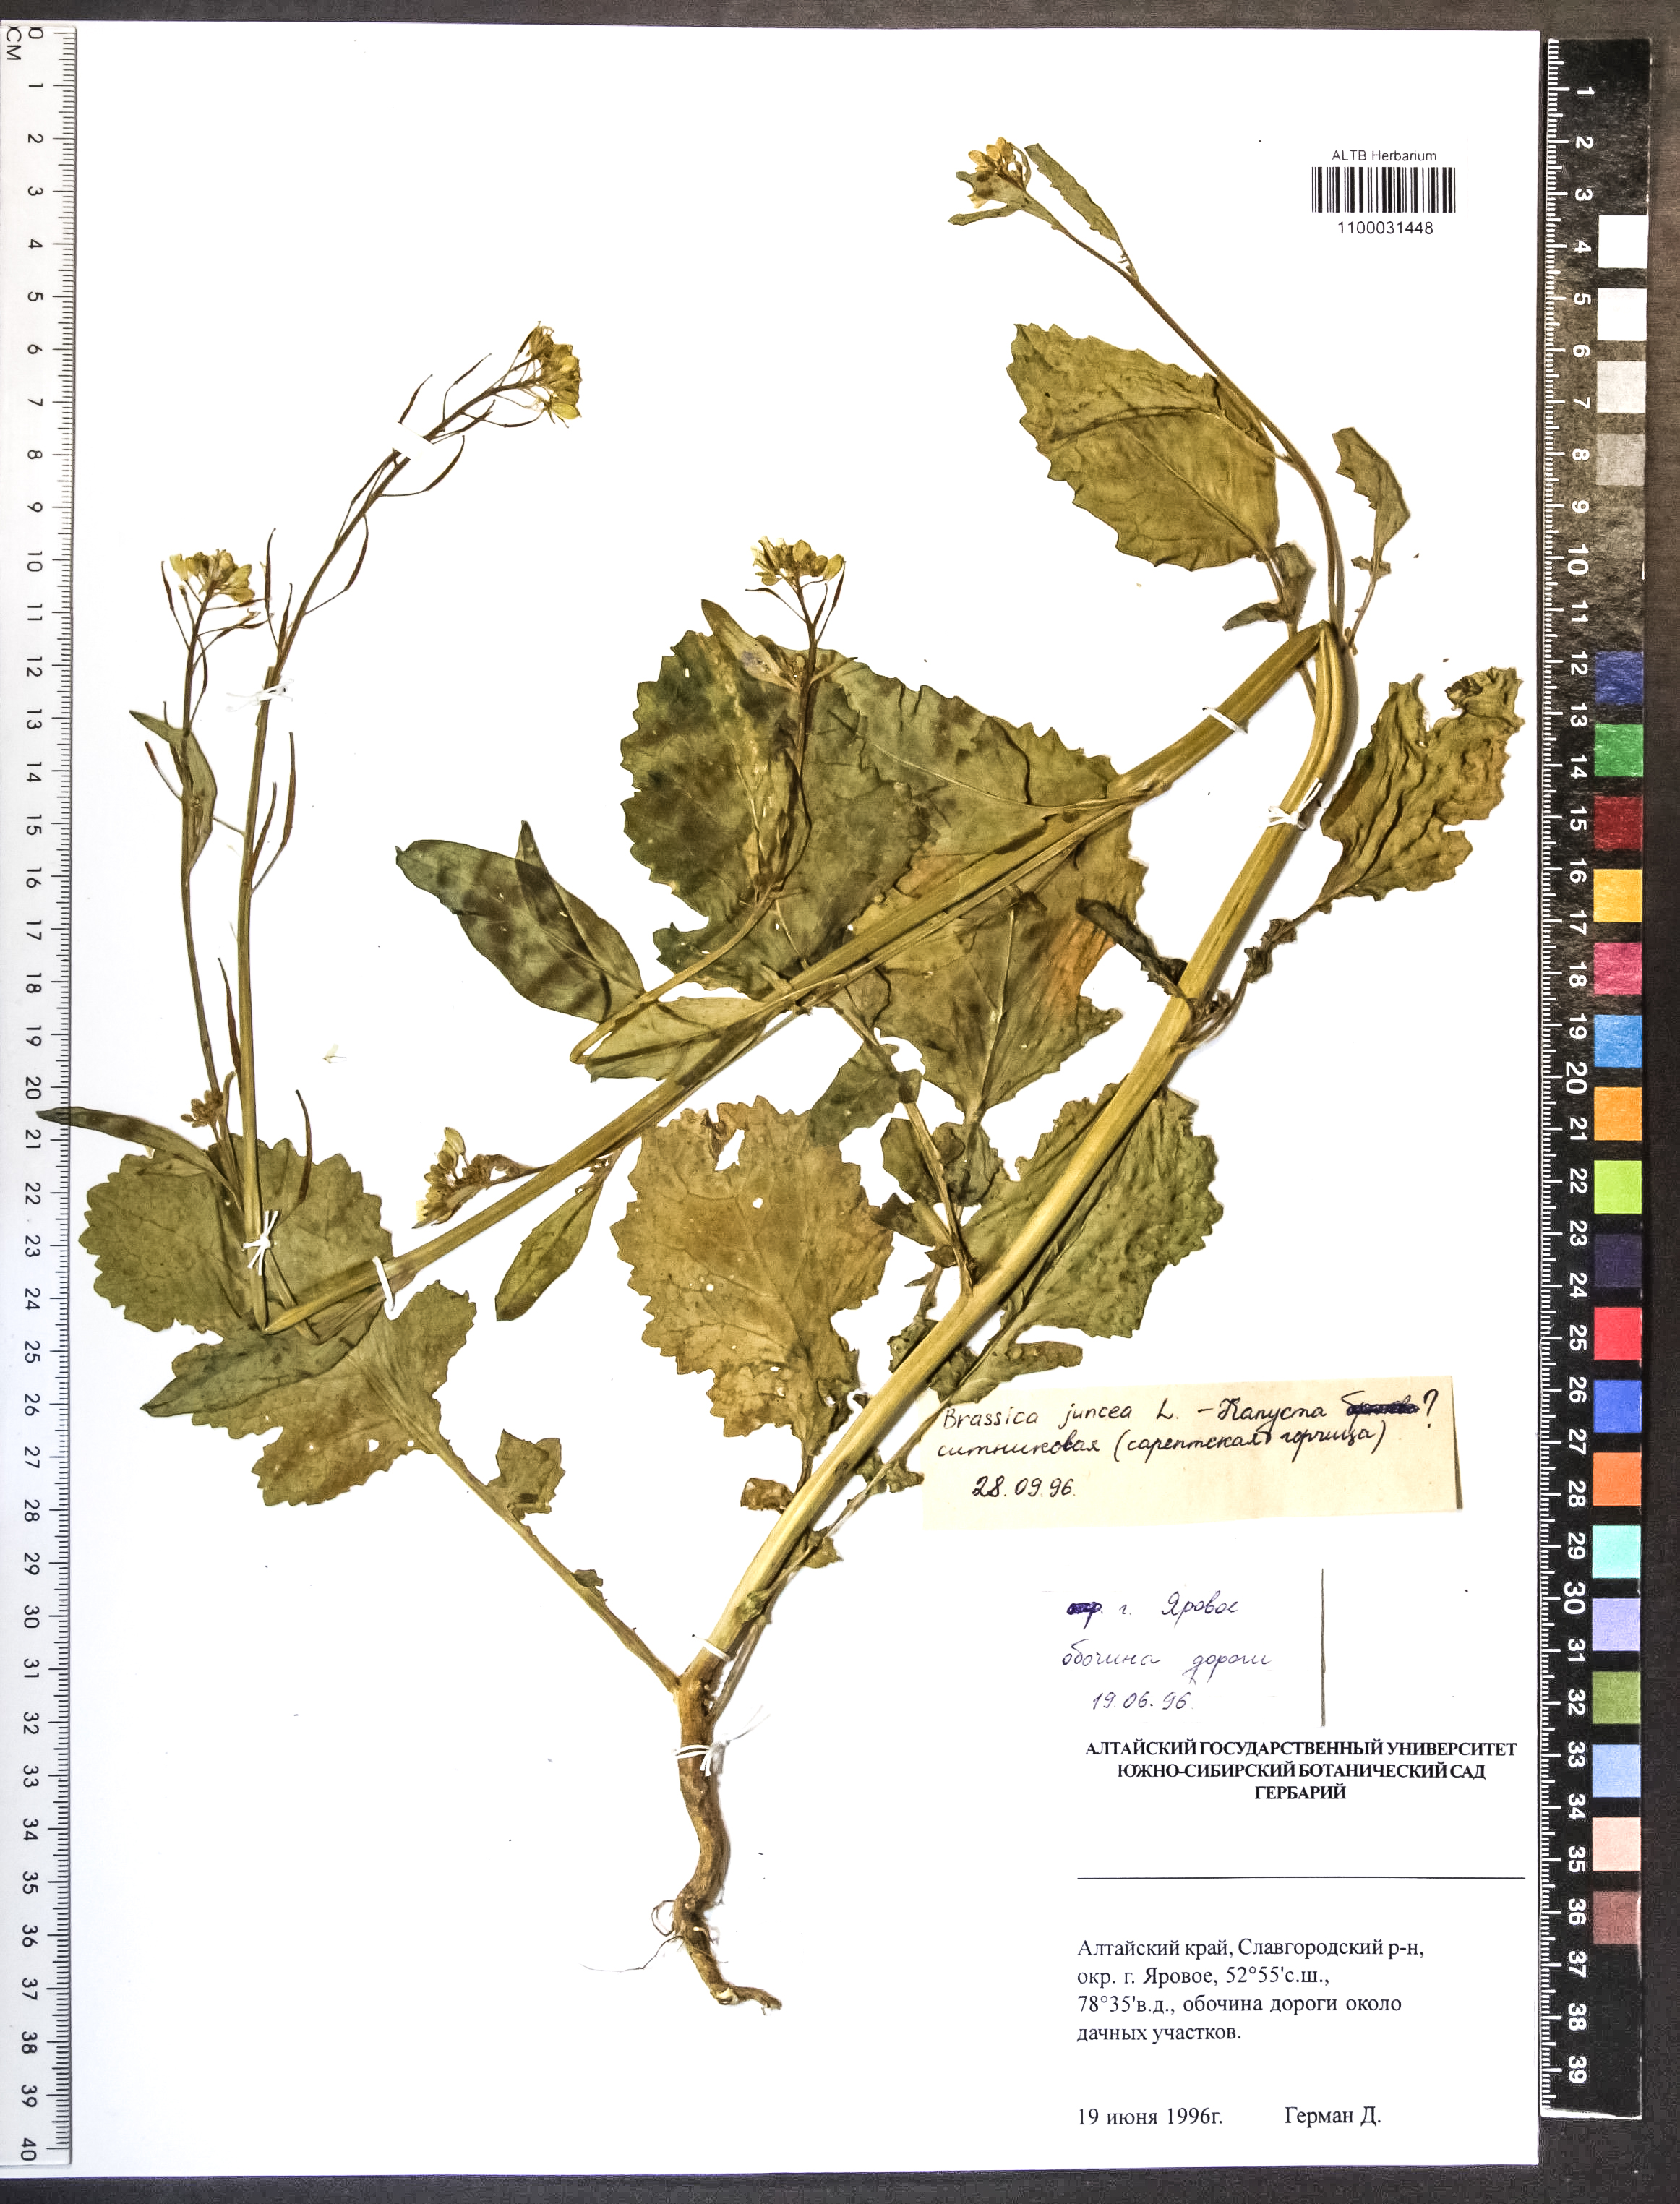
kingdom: Plantae
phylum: Tracheophyta
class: Magnoliopsida
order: Brassicales
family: Brassicaceae
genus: Brassica
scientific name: Brassica juncea
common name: Brown mustard
